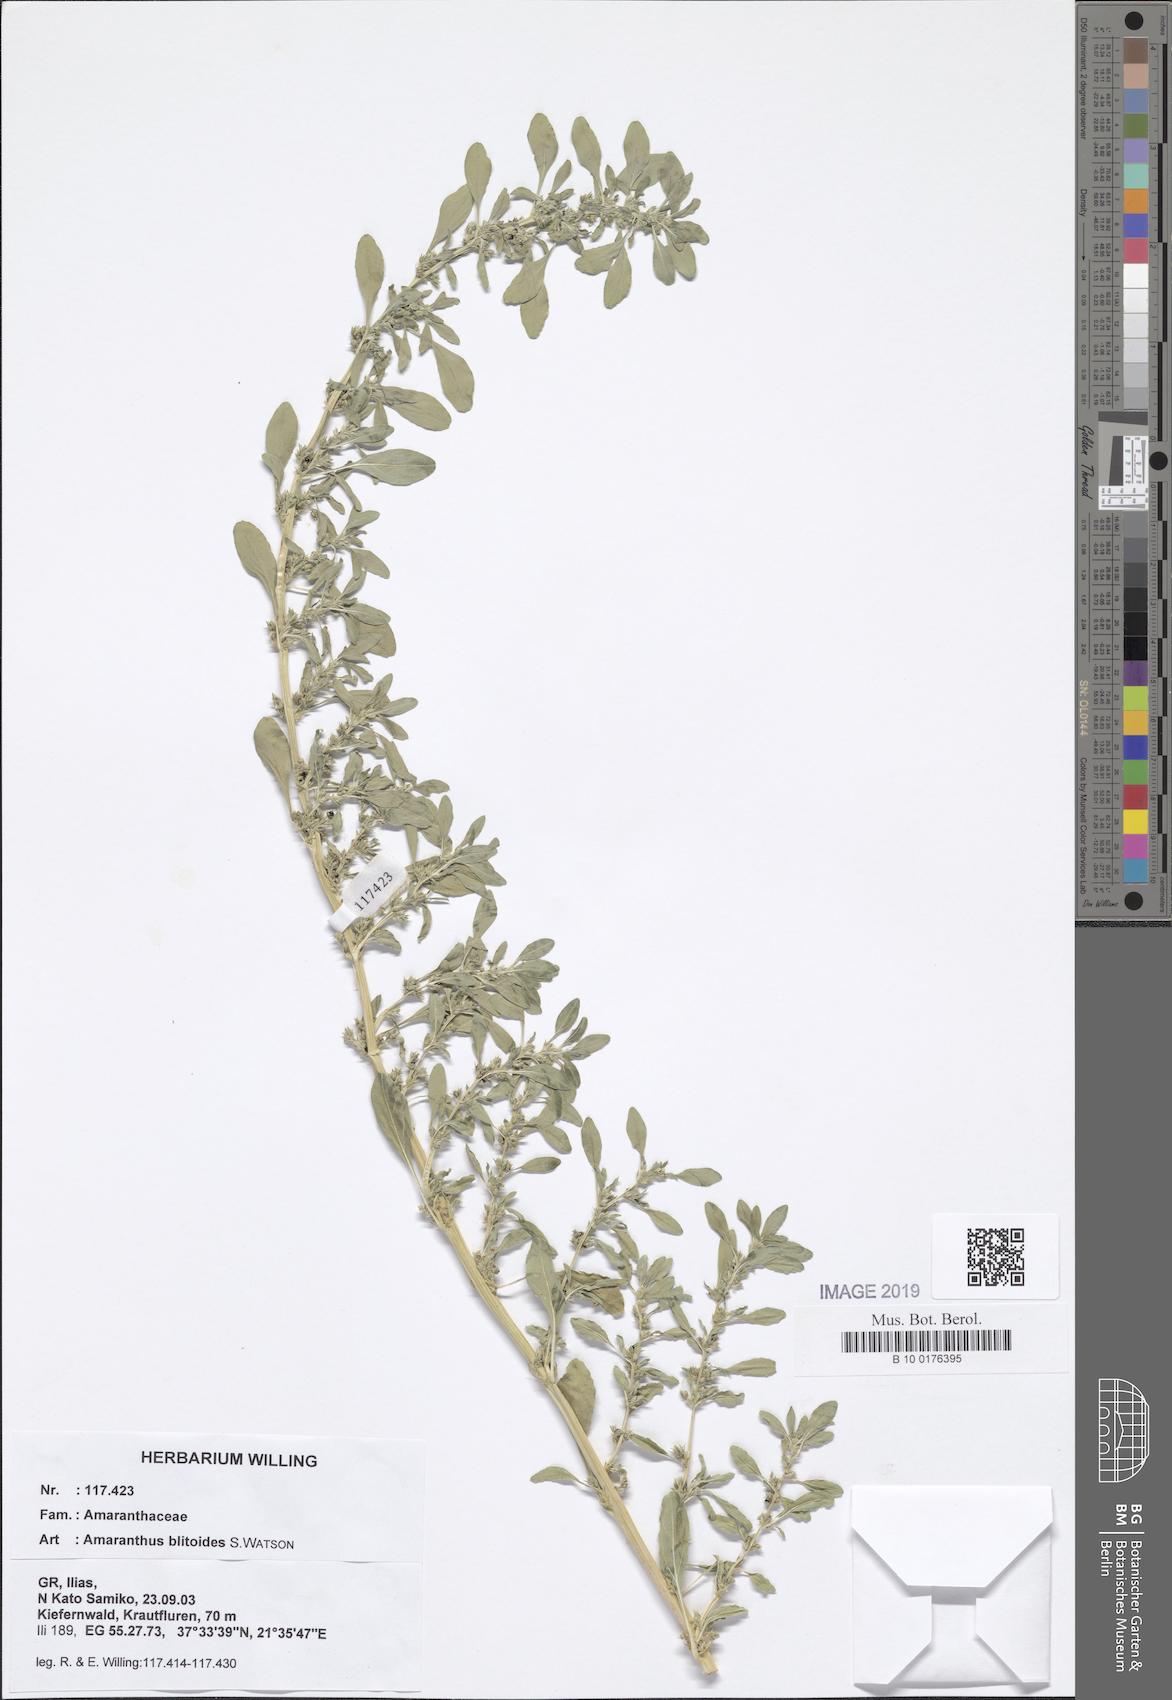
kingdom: Plantae
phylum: Tracheophyta
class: Magnoliopsida
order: Caryophyllales
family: Amaranthaceae
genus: Amaranthus
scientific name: Amaranthus blitoides
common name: Prostrate pigweed
